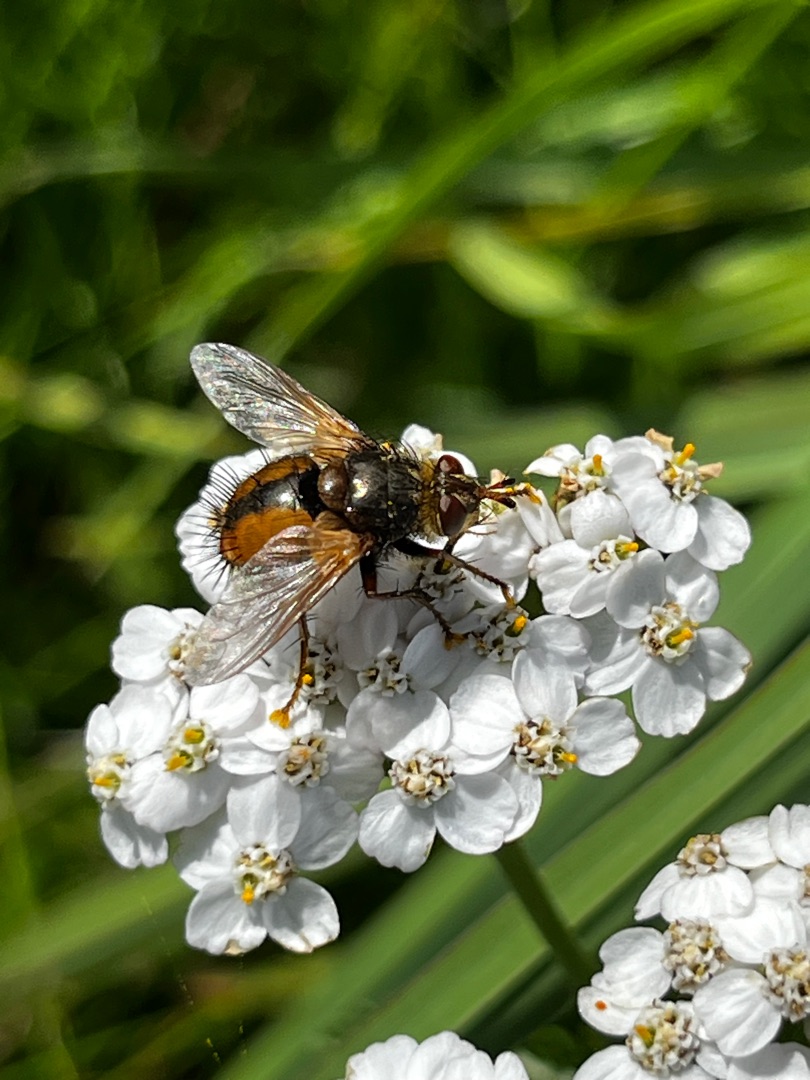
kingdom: Animalia
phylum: Arthropoda
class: Insecta
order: Diptera
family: Tachinidae
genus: Tachina
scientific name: Tachina fera
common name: Mellemfluen oskar
